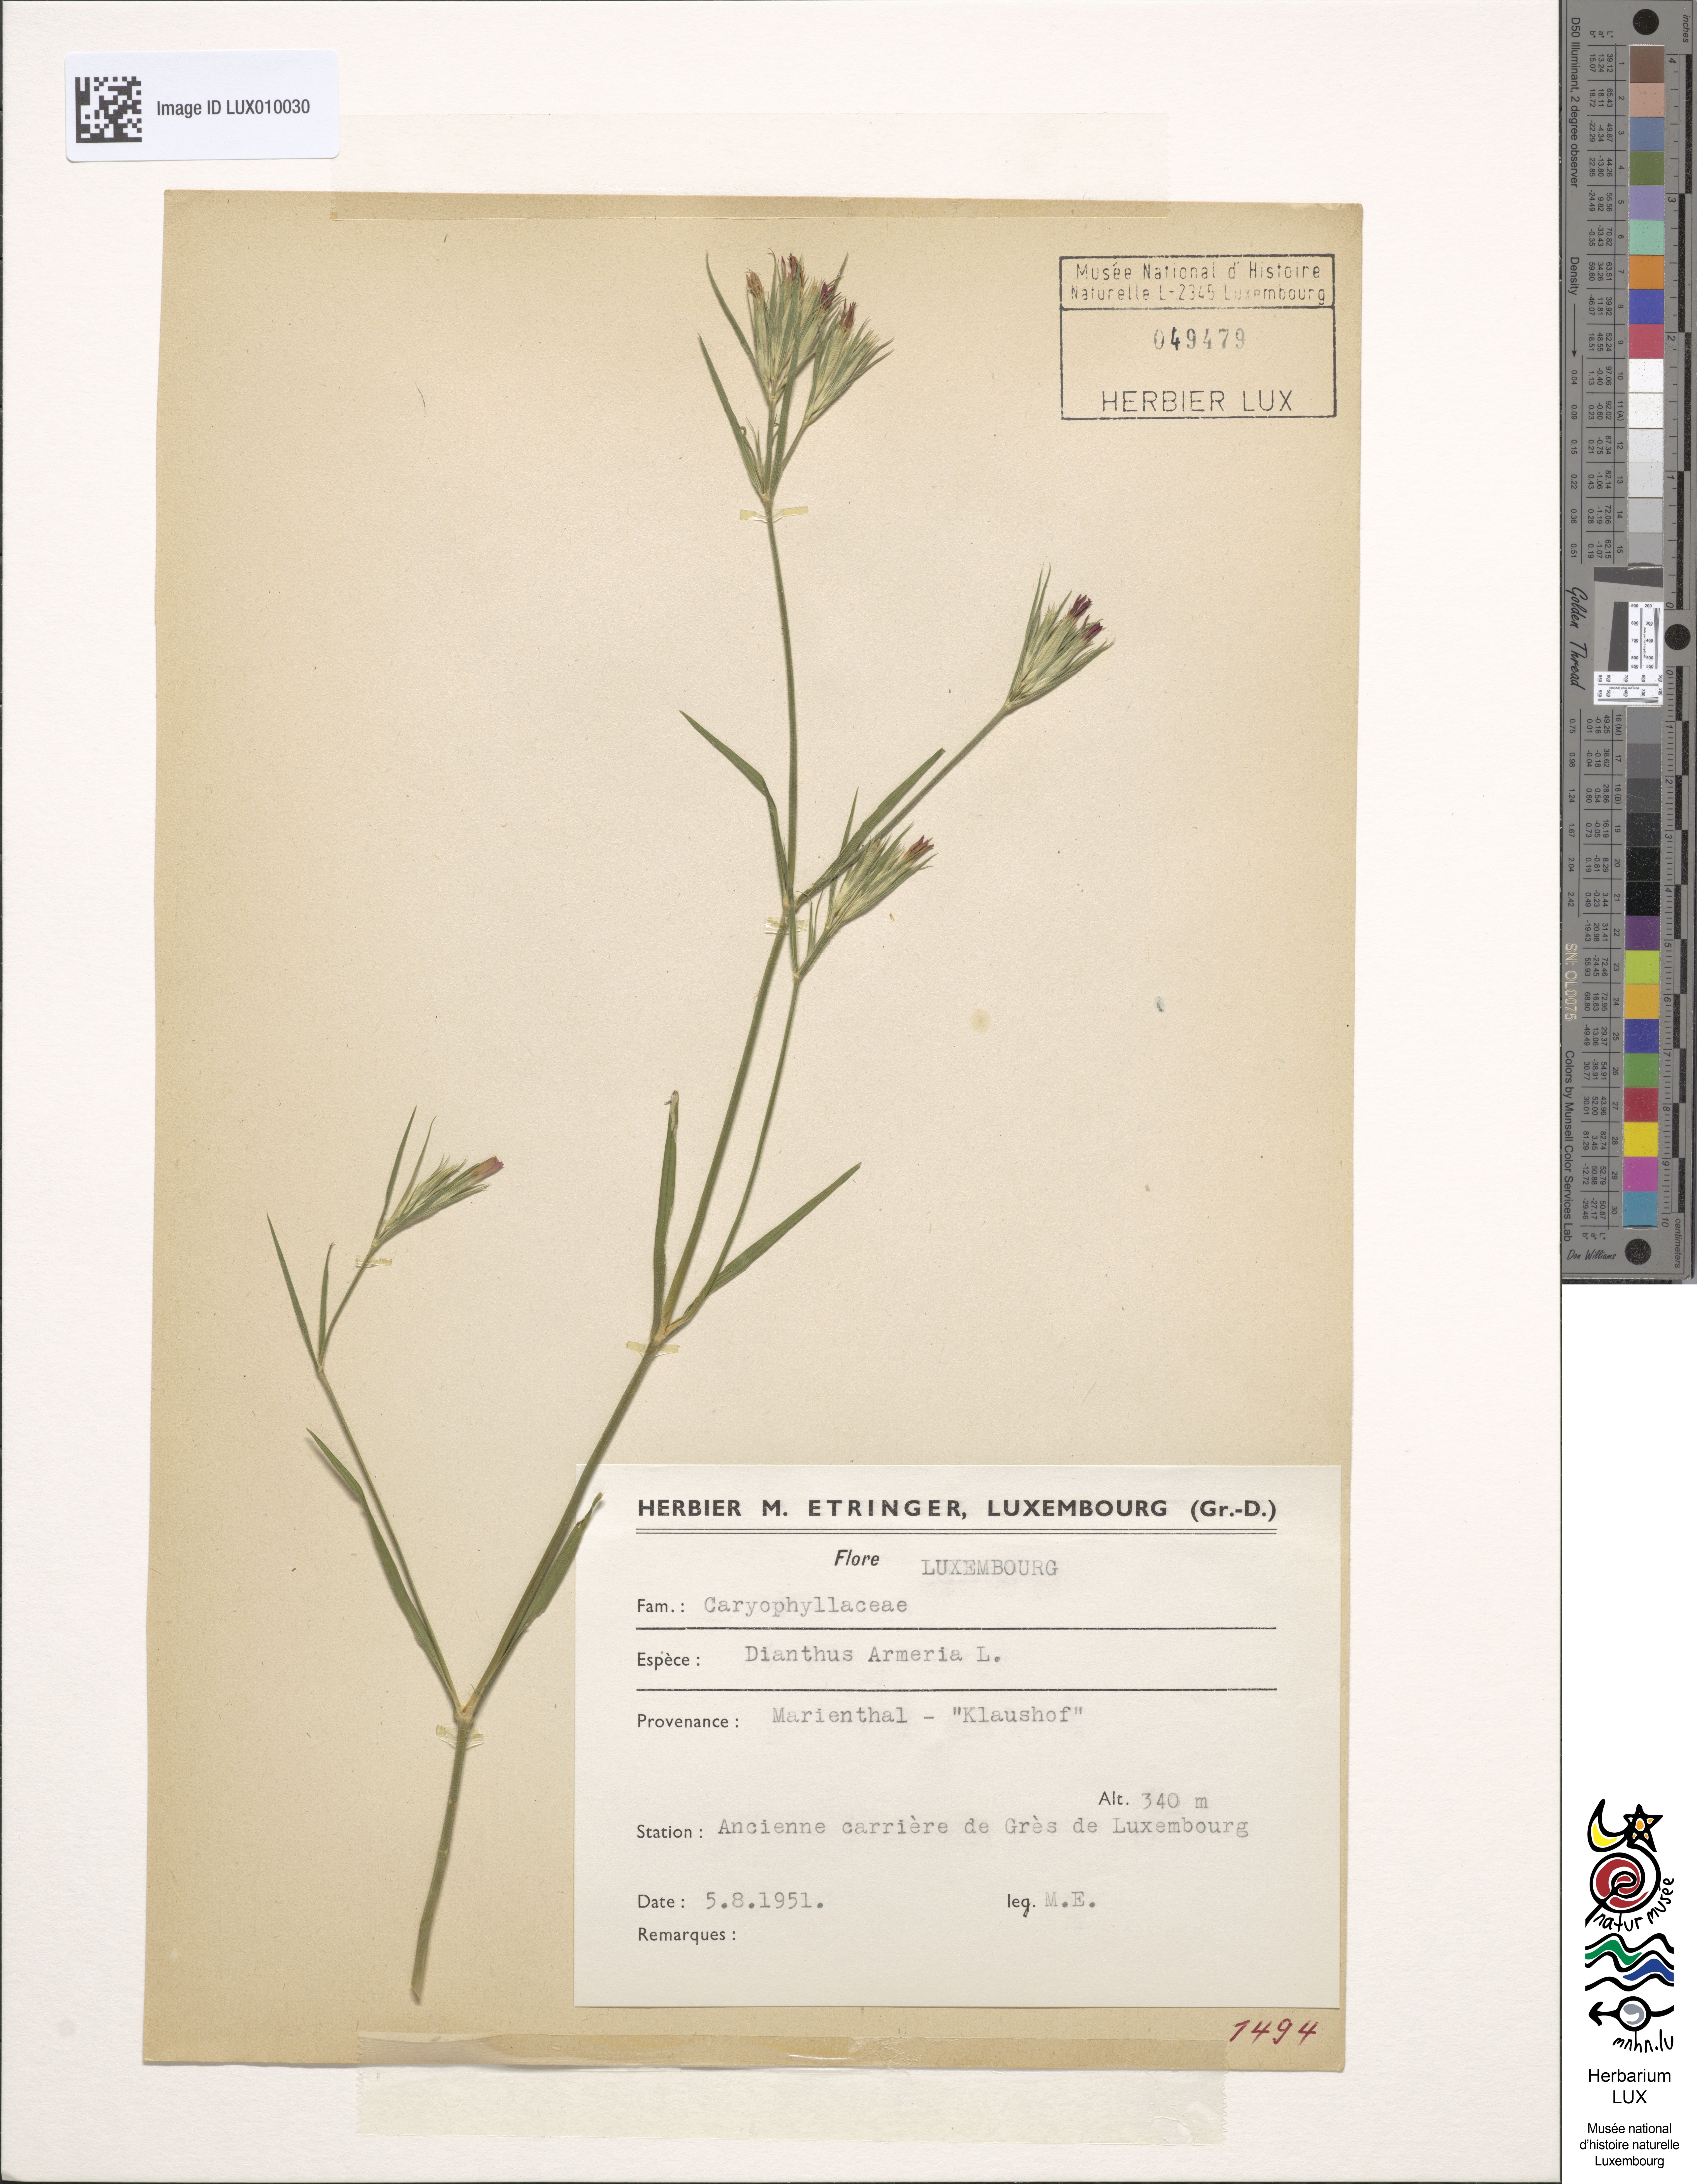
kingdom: Plantae
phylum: Tracheophyta
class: Magnoliopsida
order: Caryophyllales
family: Caryophyllaceae
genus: Dianthus
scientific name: Dianthus armeria
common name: Deptford pink
